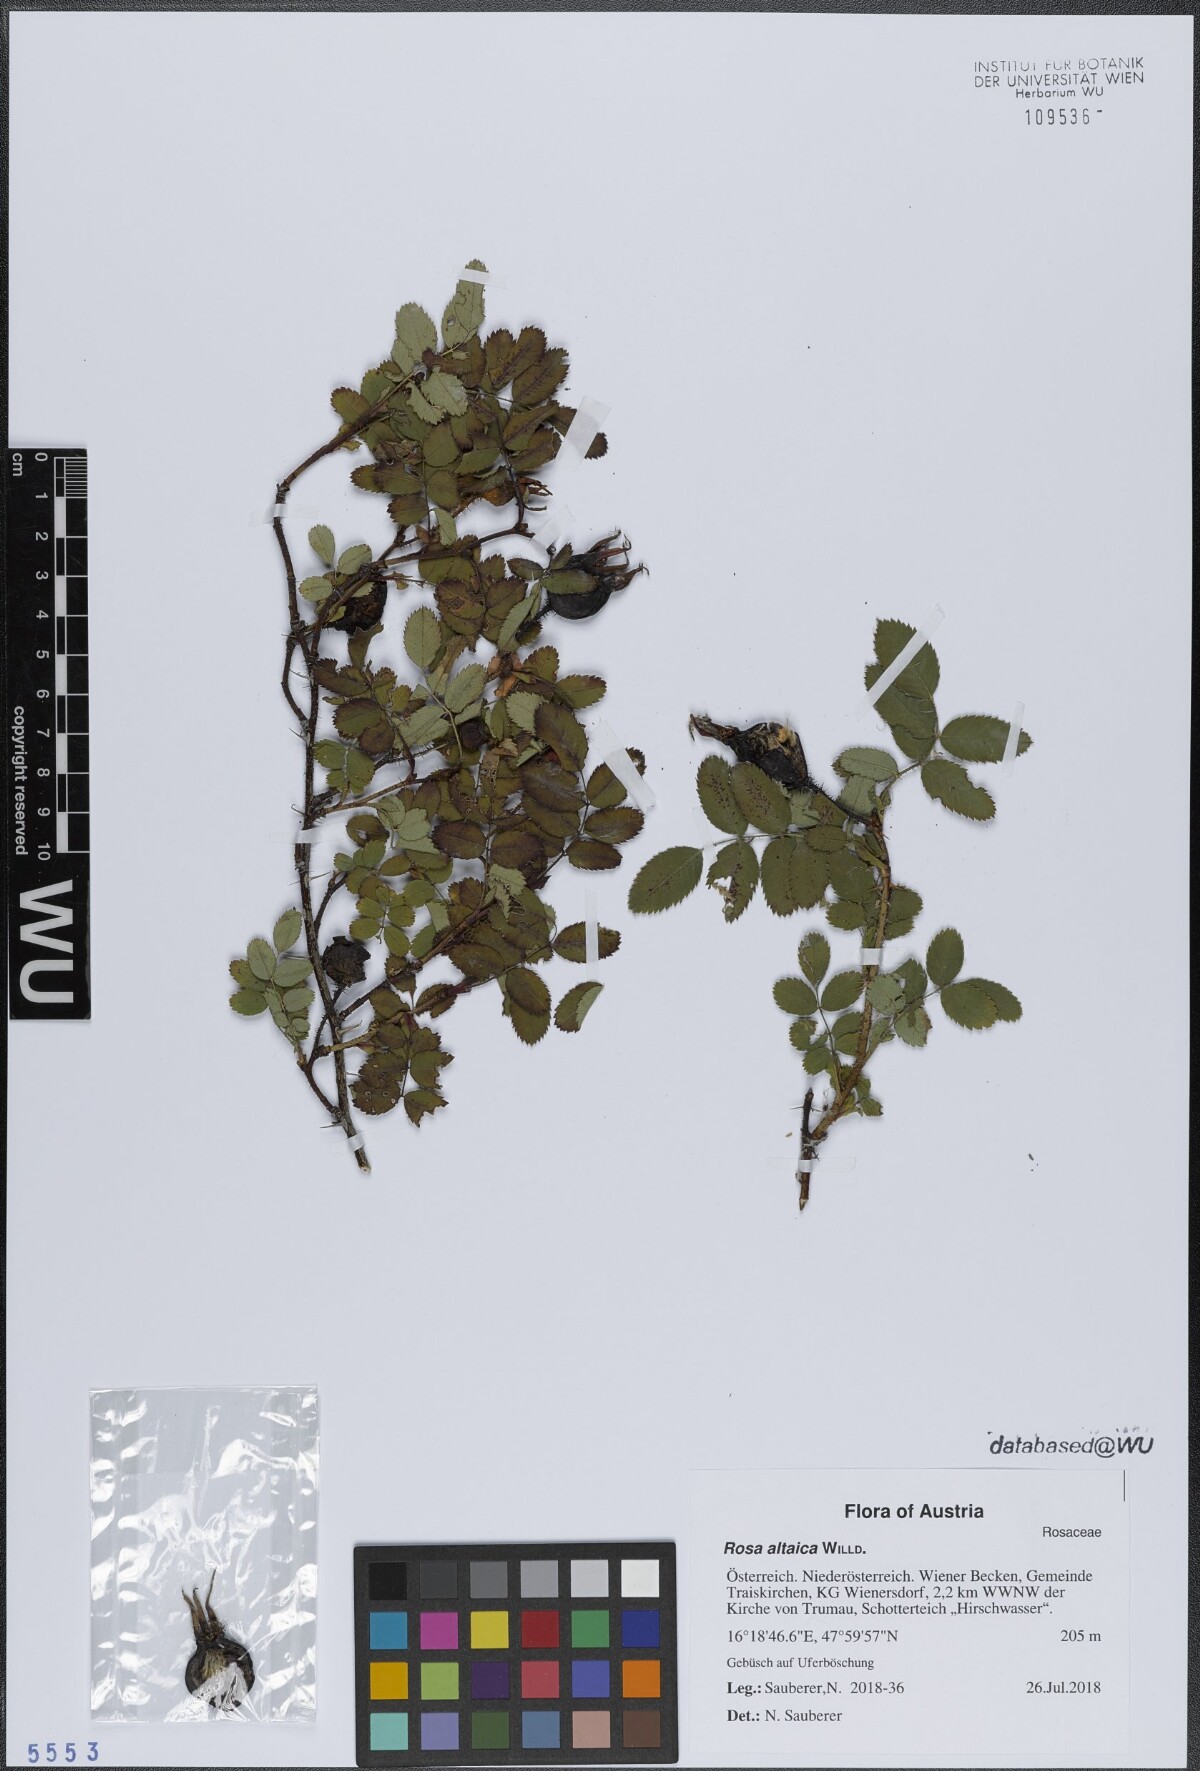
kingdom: Plantae
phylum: Tracheophyta
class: Magnoliopsida
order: Rosales
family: Rosaceae
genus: Rosa
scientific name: Rosa spinosissima
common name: Burnet rose
